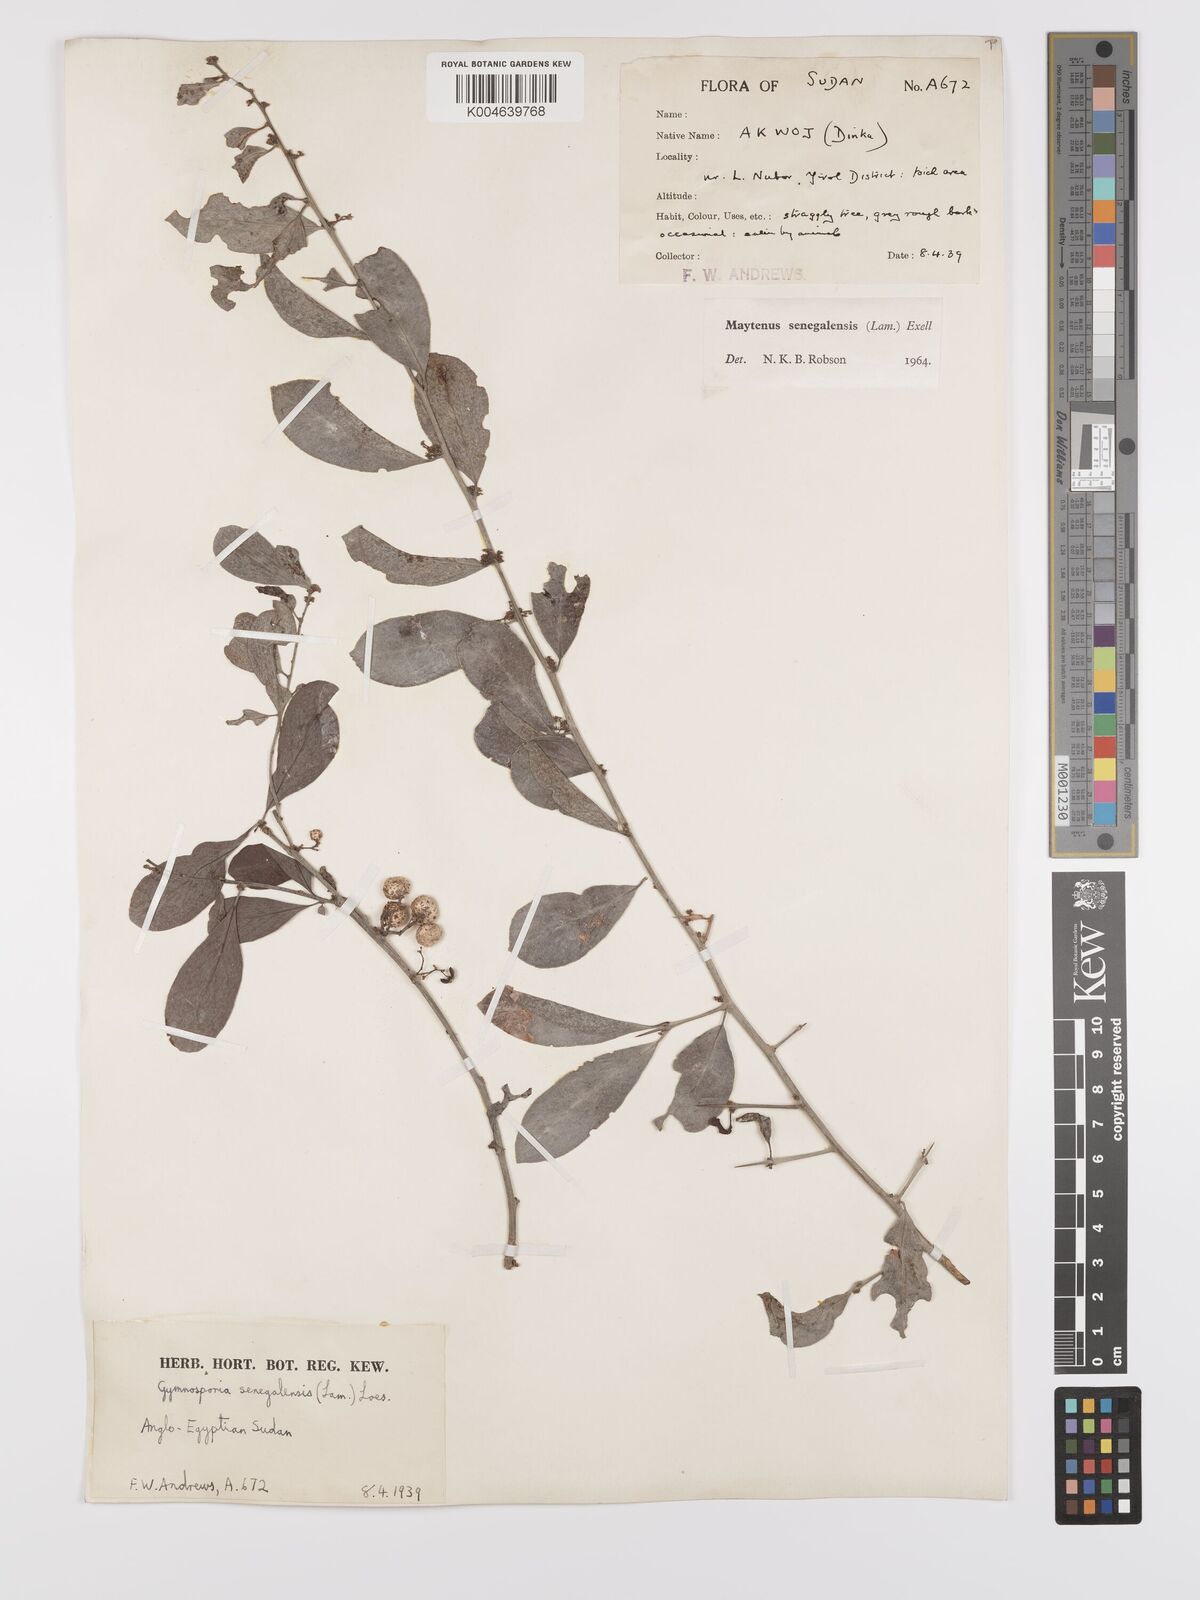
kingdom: Plantae
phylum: Tracheophyta
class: Magnoliopsida
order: Celastrales
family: Celastraceae
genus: Gymnosporia
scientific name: Gymnosporia senegalensis
